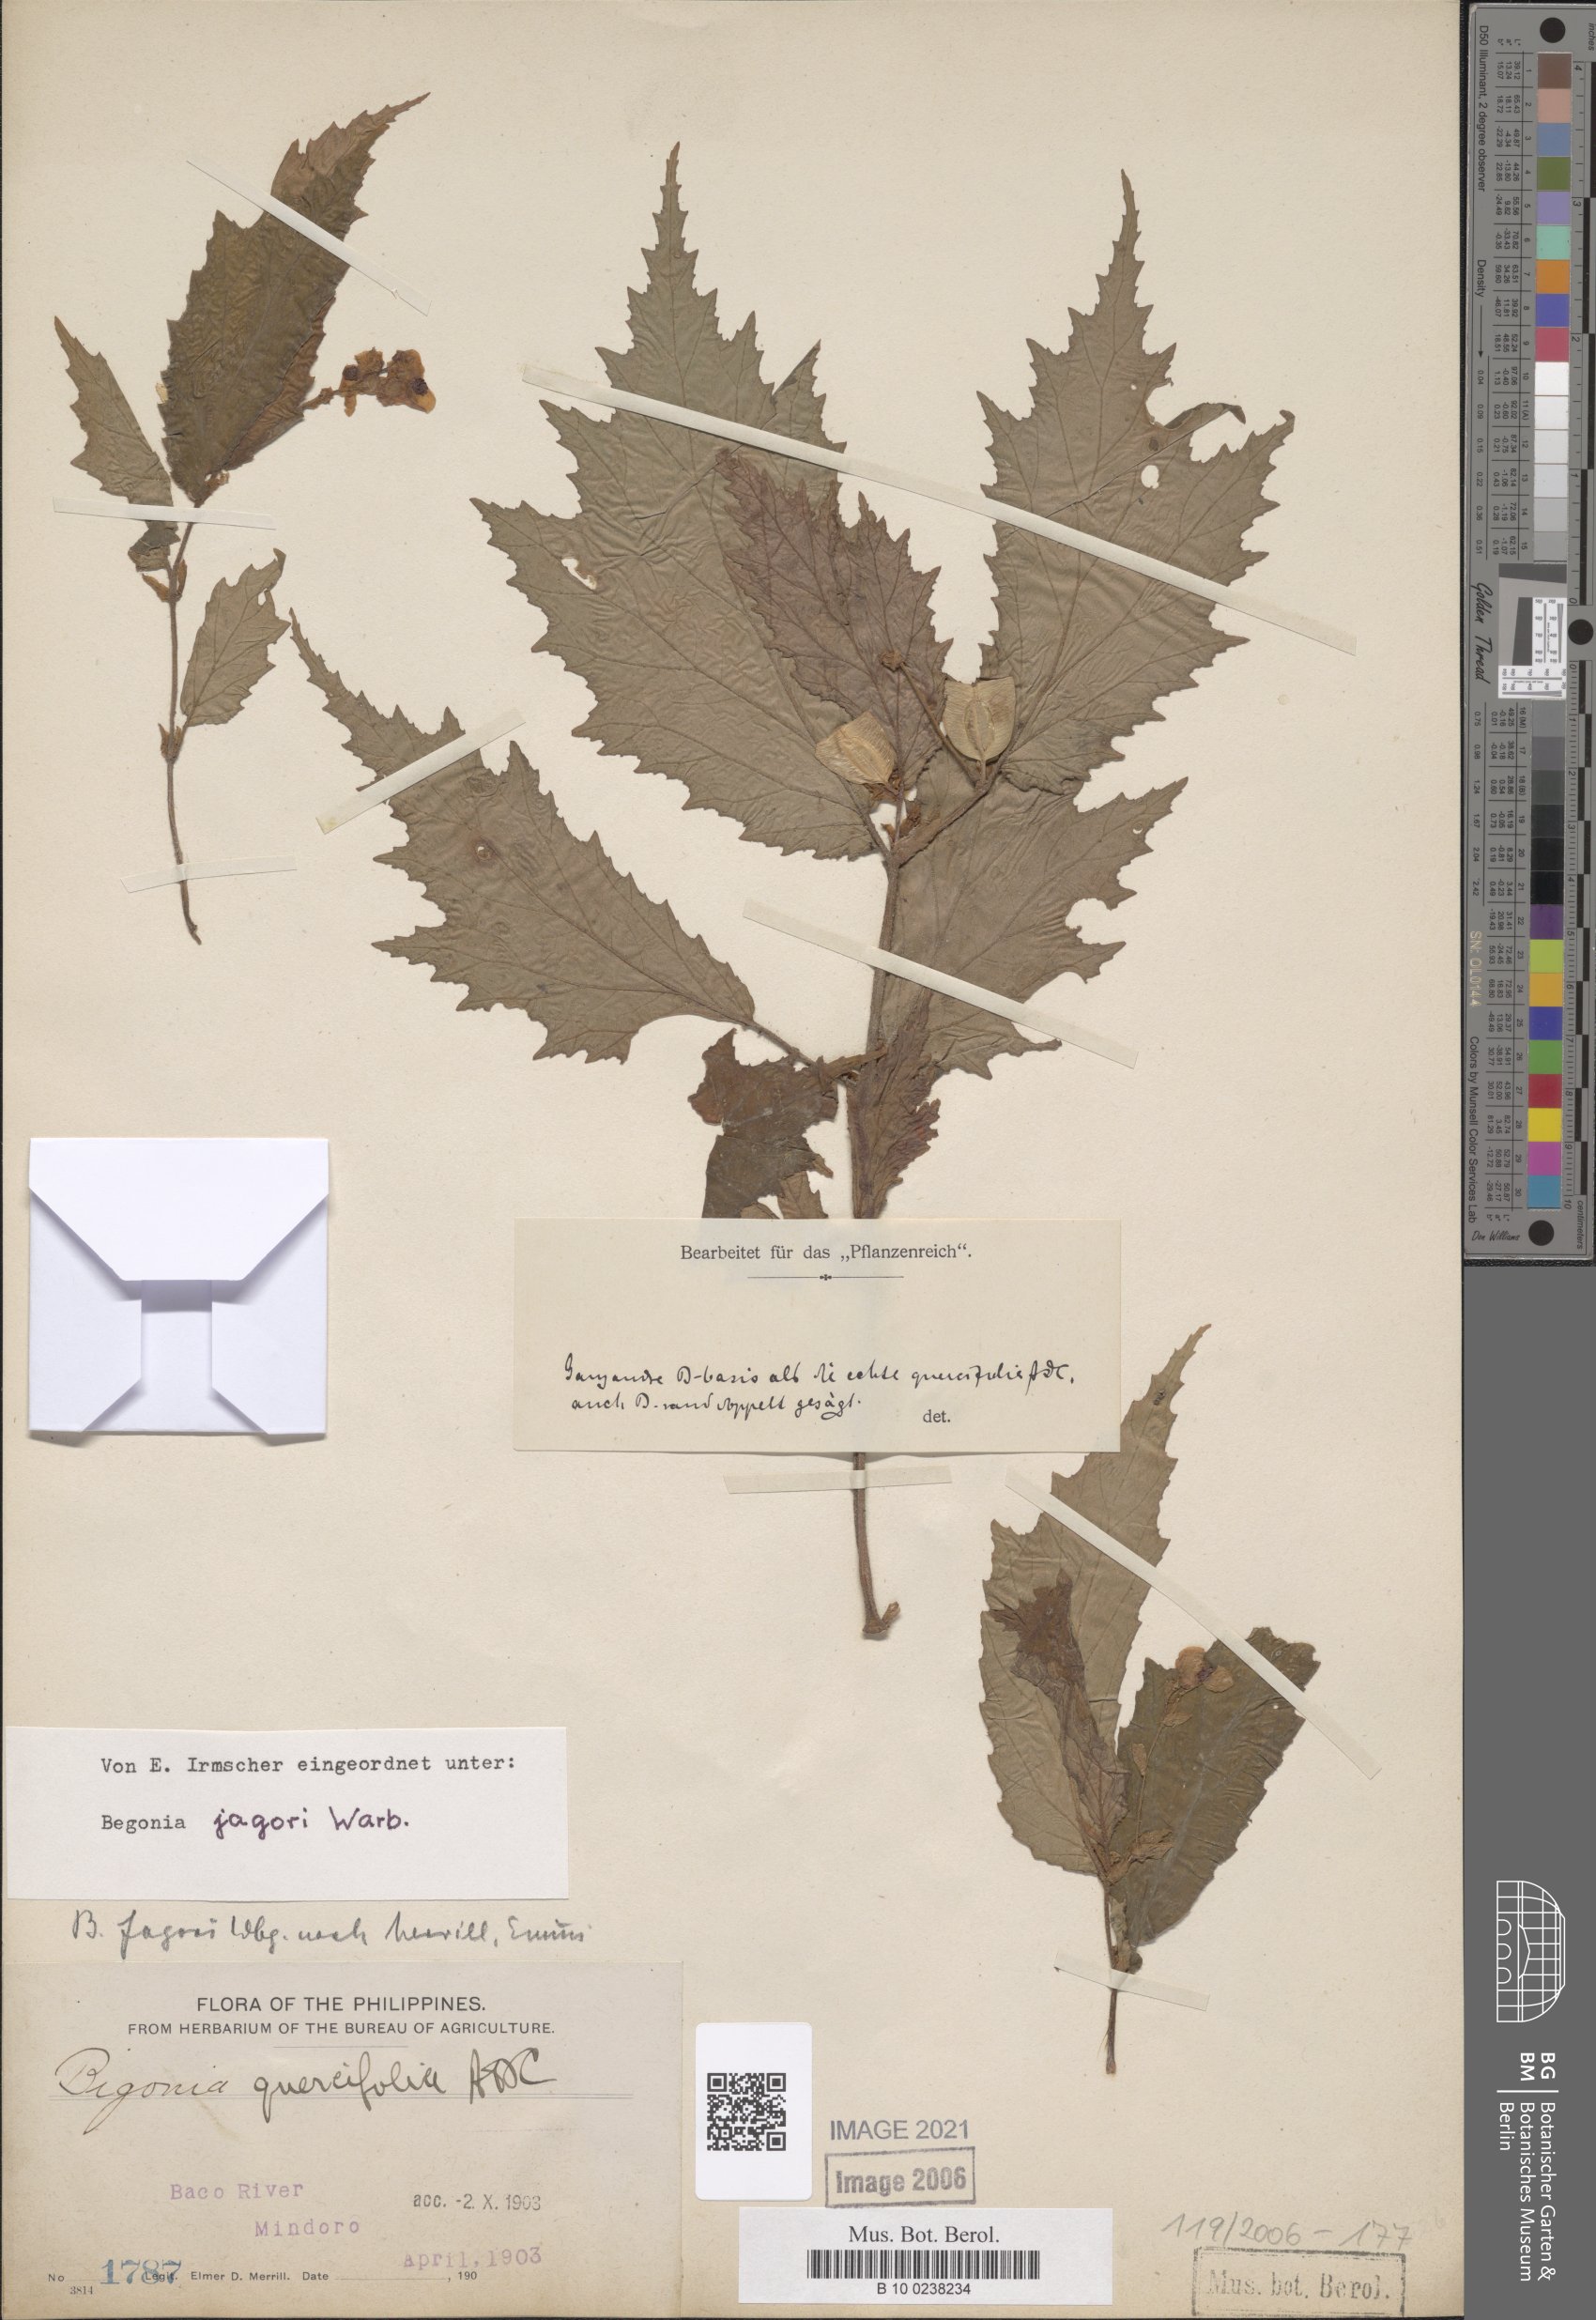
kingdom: Plantae
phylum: Tracheophyta
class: Magnoliopsida
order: Cucurbitales
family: Begoniaceae
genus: Begonia
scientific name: Begonia jagorii
